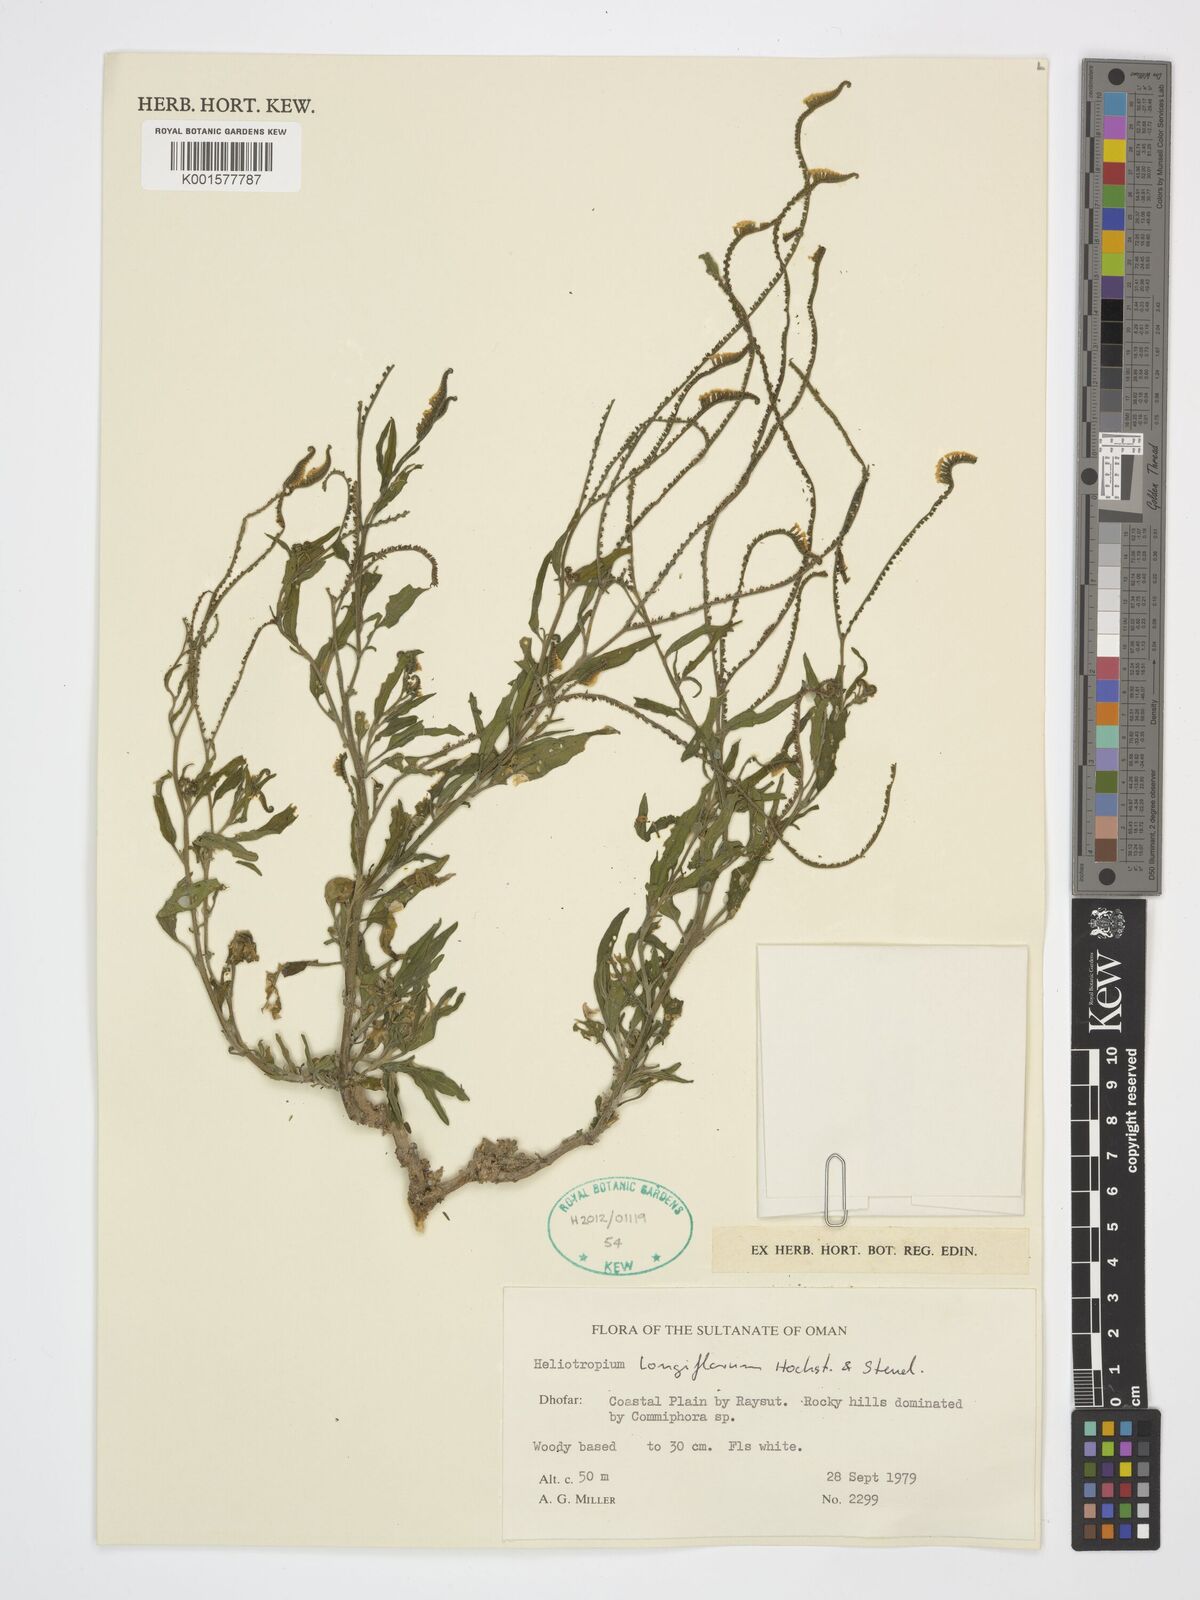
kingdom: Plantae
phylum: Tracheophyta
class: Magnoliopsida
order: Boraginales
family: Heliotropiaceae
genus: Heliotropium
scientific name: Heliotropium longiflorum
